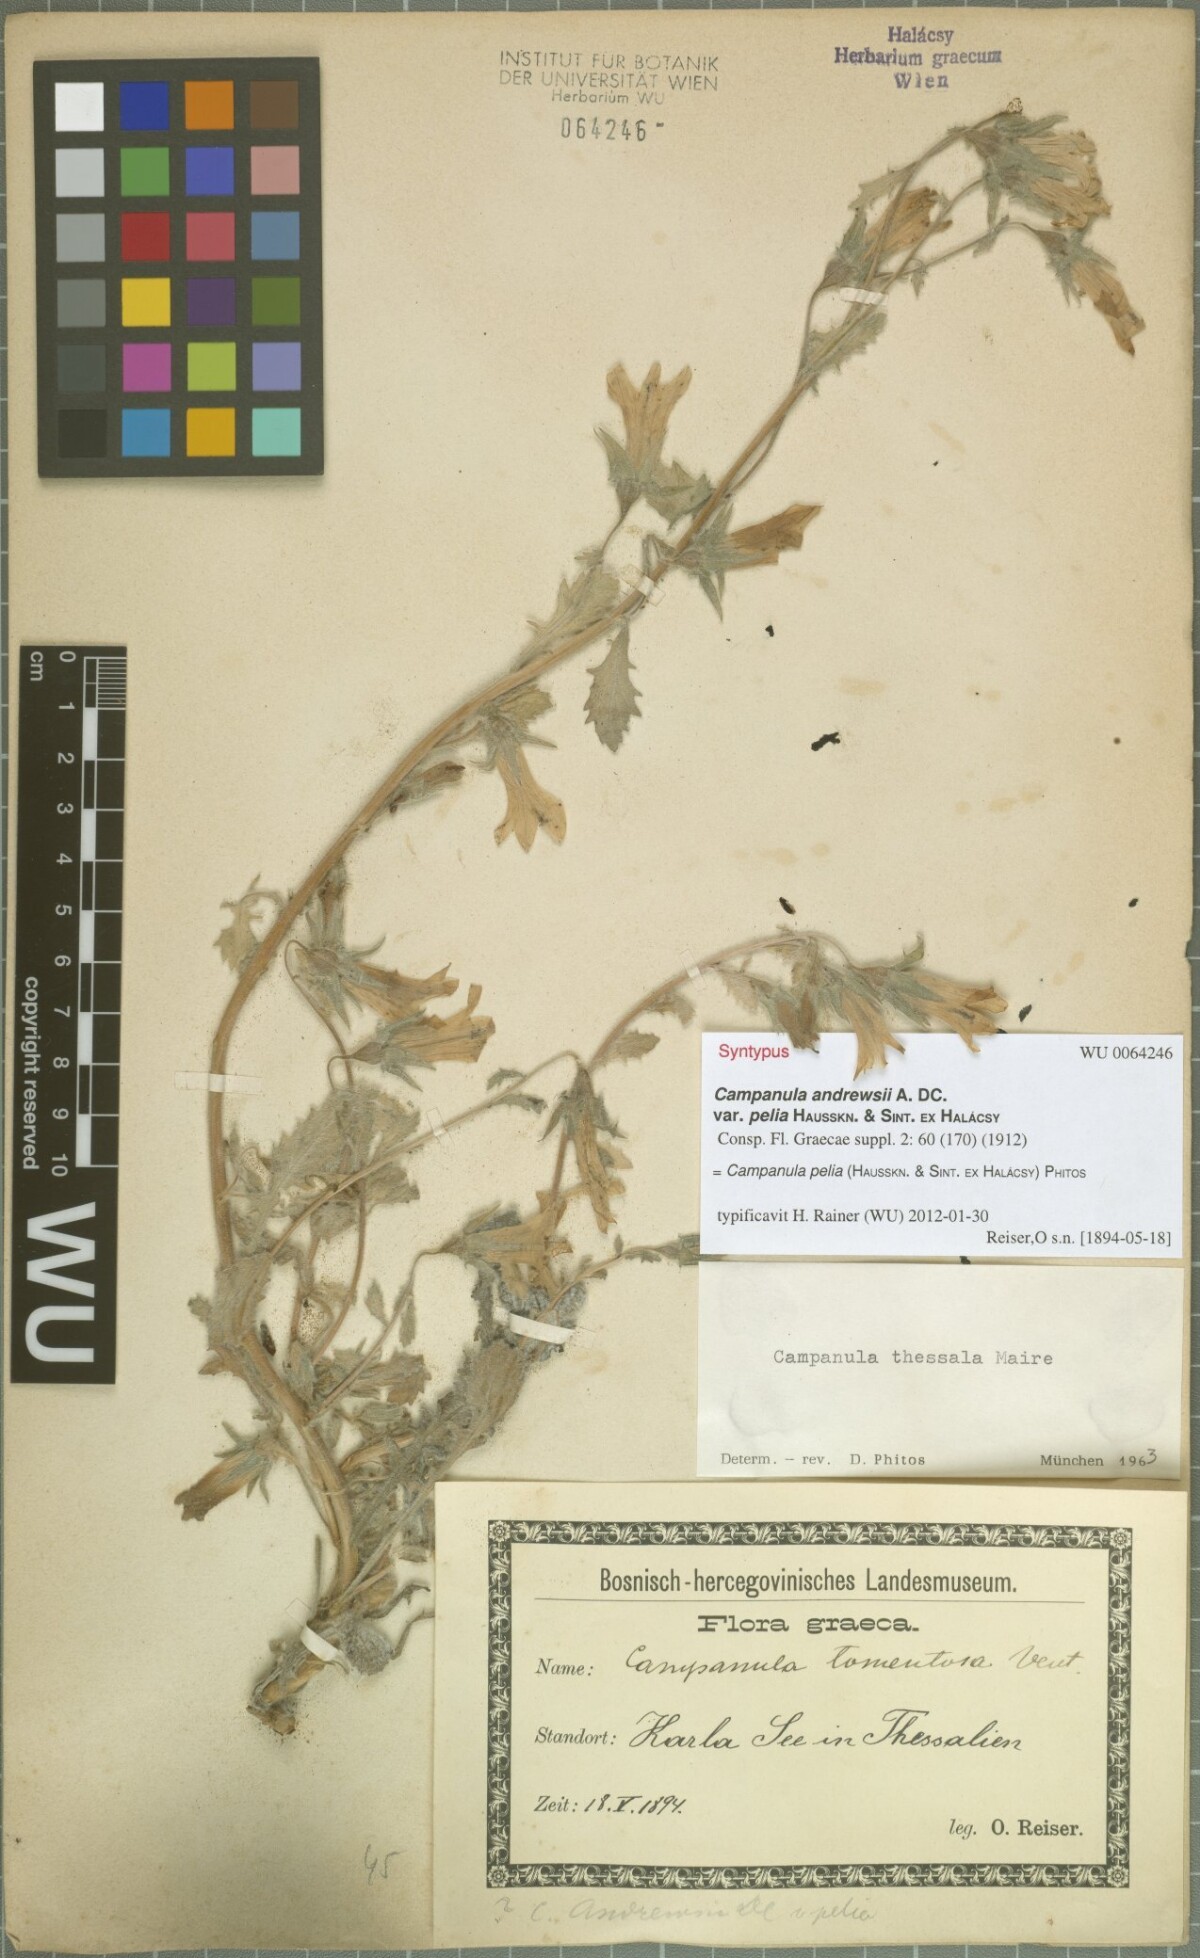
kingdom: Plantae
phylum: Tracheophyta
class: Magnoliopsida
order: Asterales
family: Campanulaceae
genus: Campanula
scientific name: Campanula pelia
